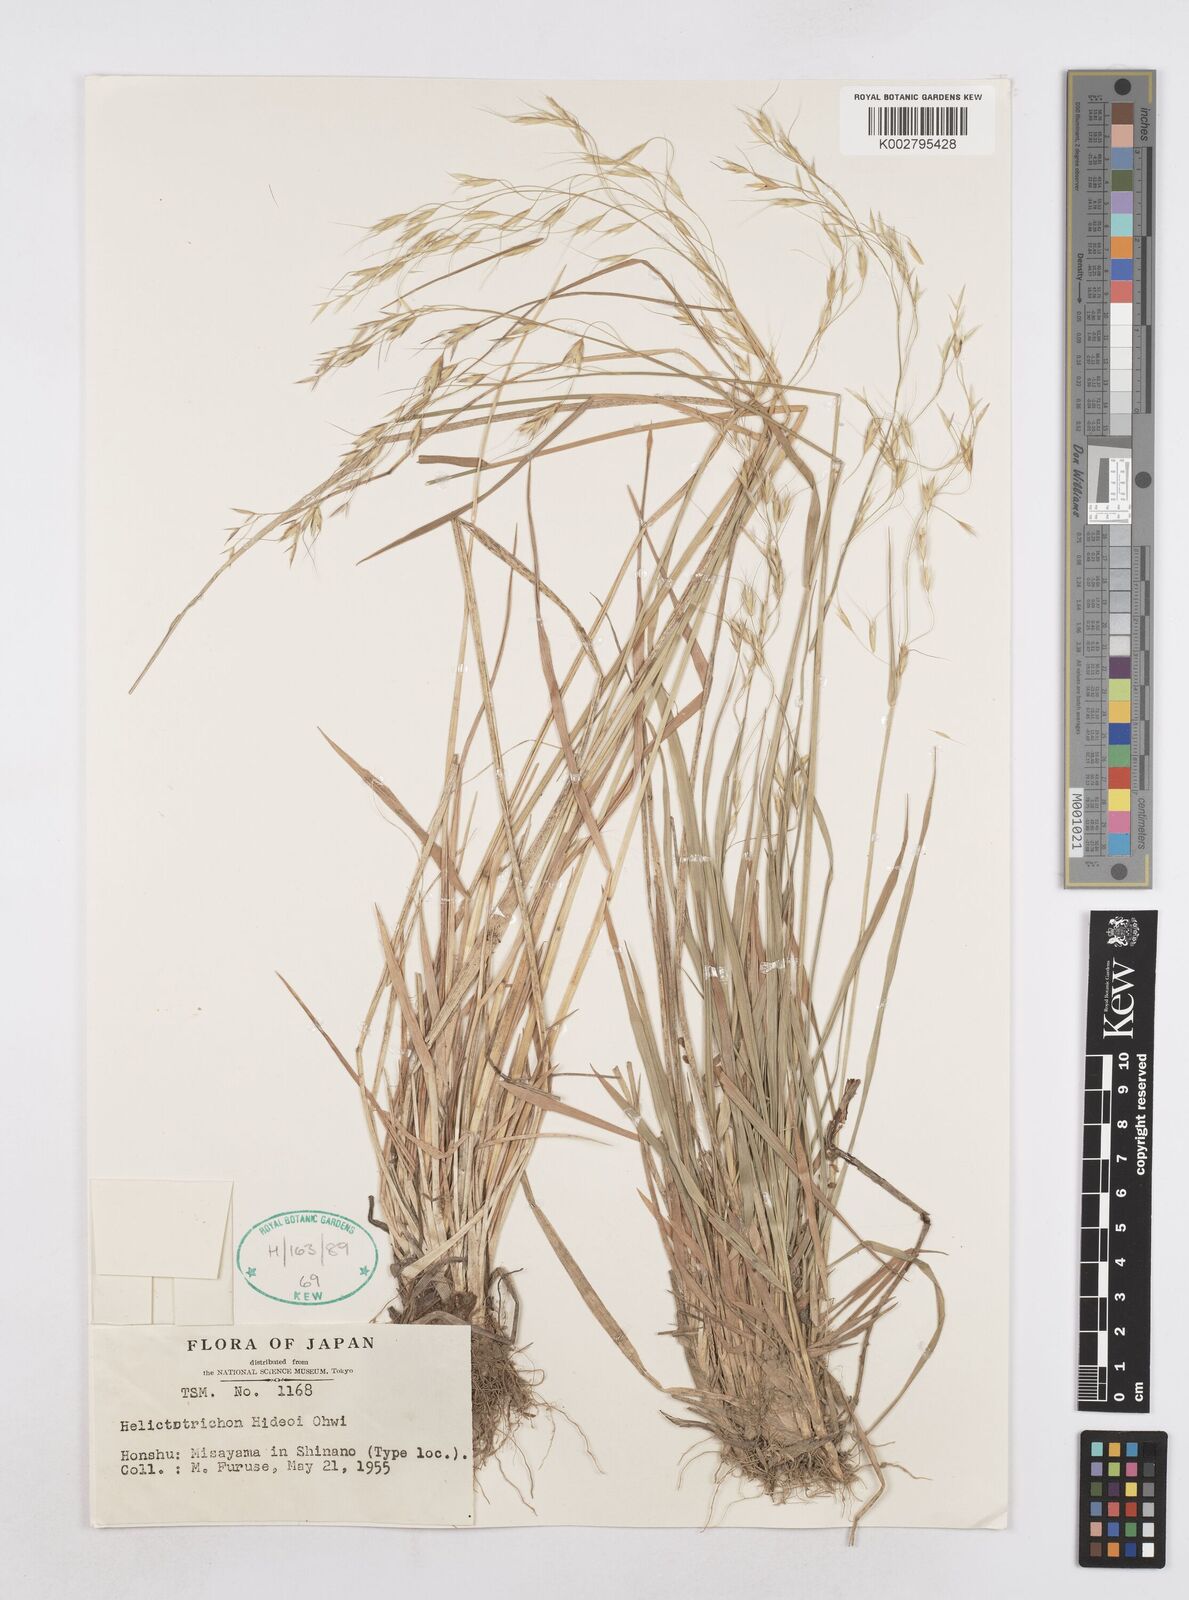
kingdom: Plantae
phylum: Tracheophyta
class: Liliopsida
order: Poales
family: Poaceae
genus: Helictotrichon
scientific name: Helictotrichon hideoi
